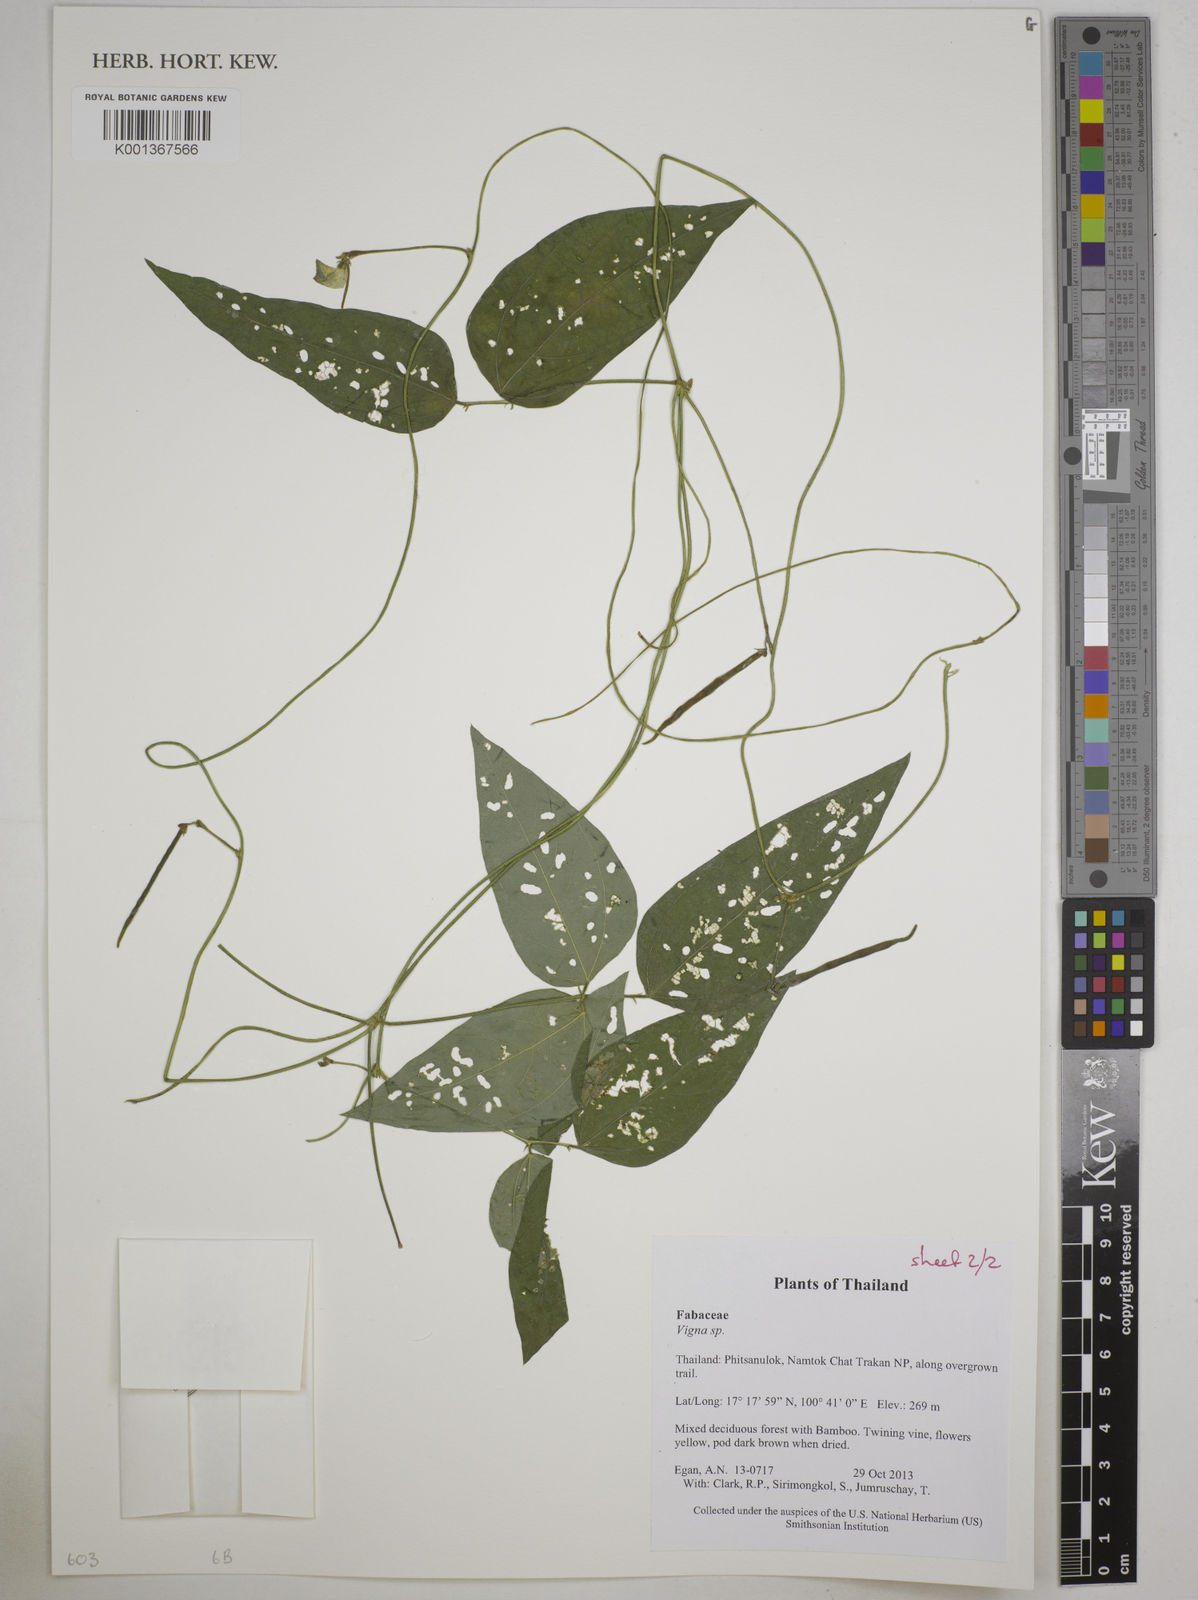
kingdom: Plantae
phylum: Tracheophyta
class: Magnoliopsida
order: Fabales
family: Fabaceae
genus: Vigna
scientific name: Vigna
